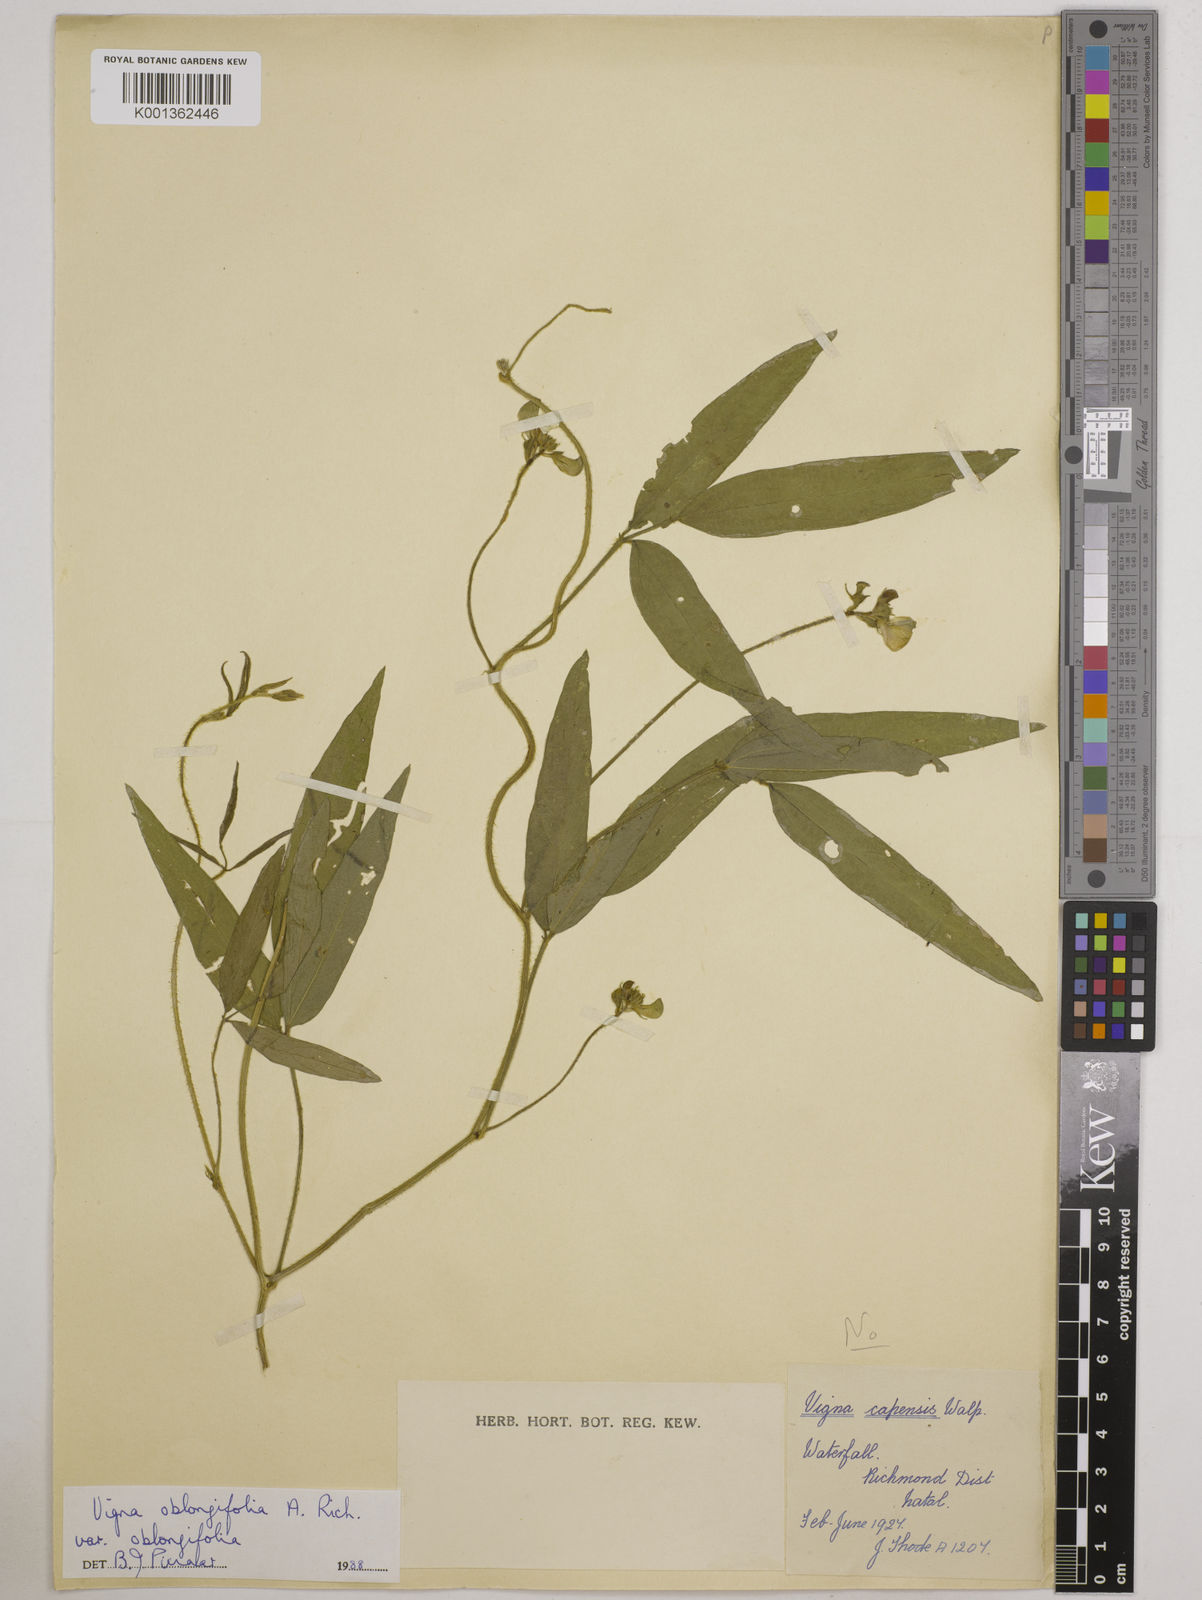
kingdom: Plantae
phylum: Tracheophyta
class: Magnoliopsida
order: Fabales
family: Fabaceae
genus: Vigna
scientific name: Vigna oblongifolia
